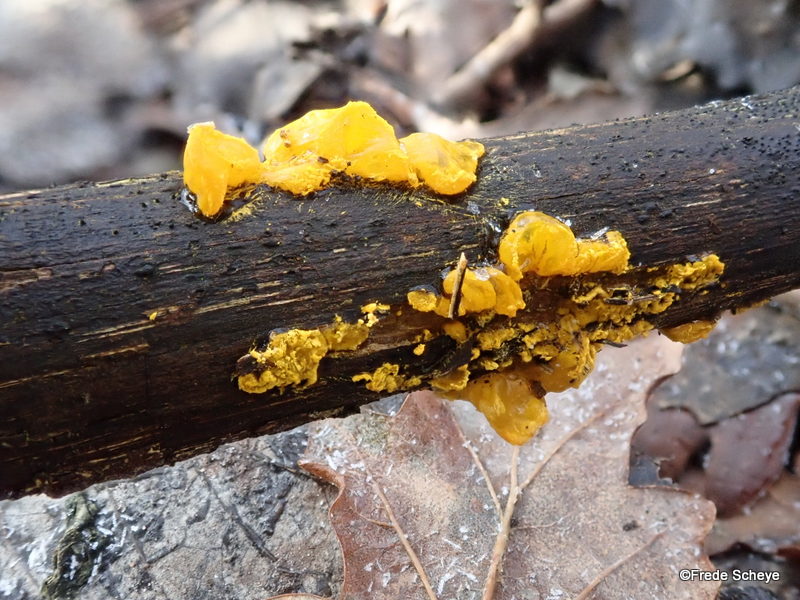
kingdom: Fungi
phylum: Basidiomycota
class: Tremellomycetes
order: Tremellales
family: Tremellaceae
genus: Tremella
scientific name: Tremella mesenterica
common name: gul bævresvamp
